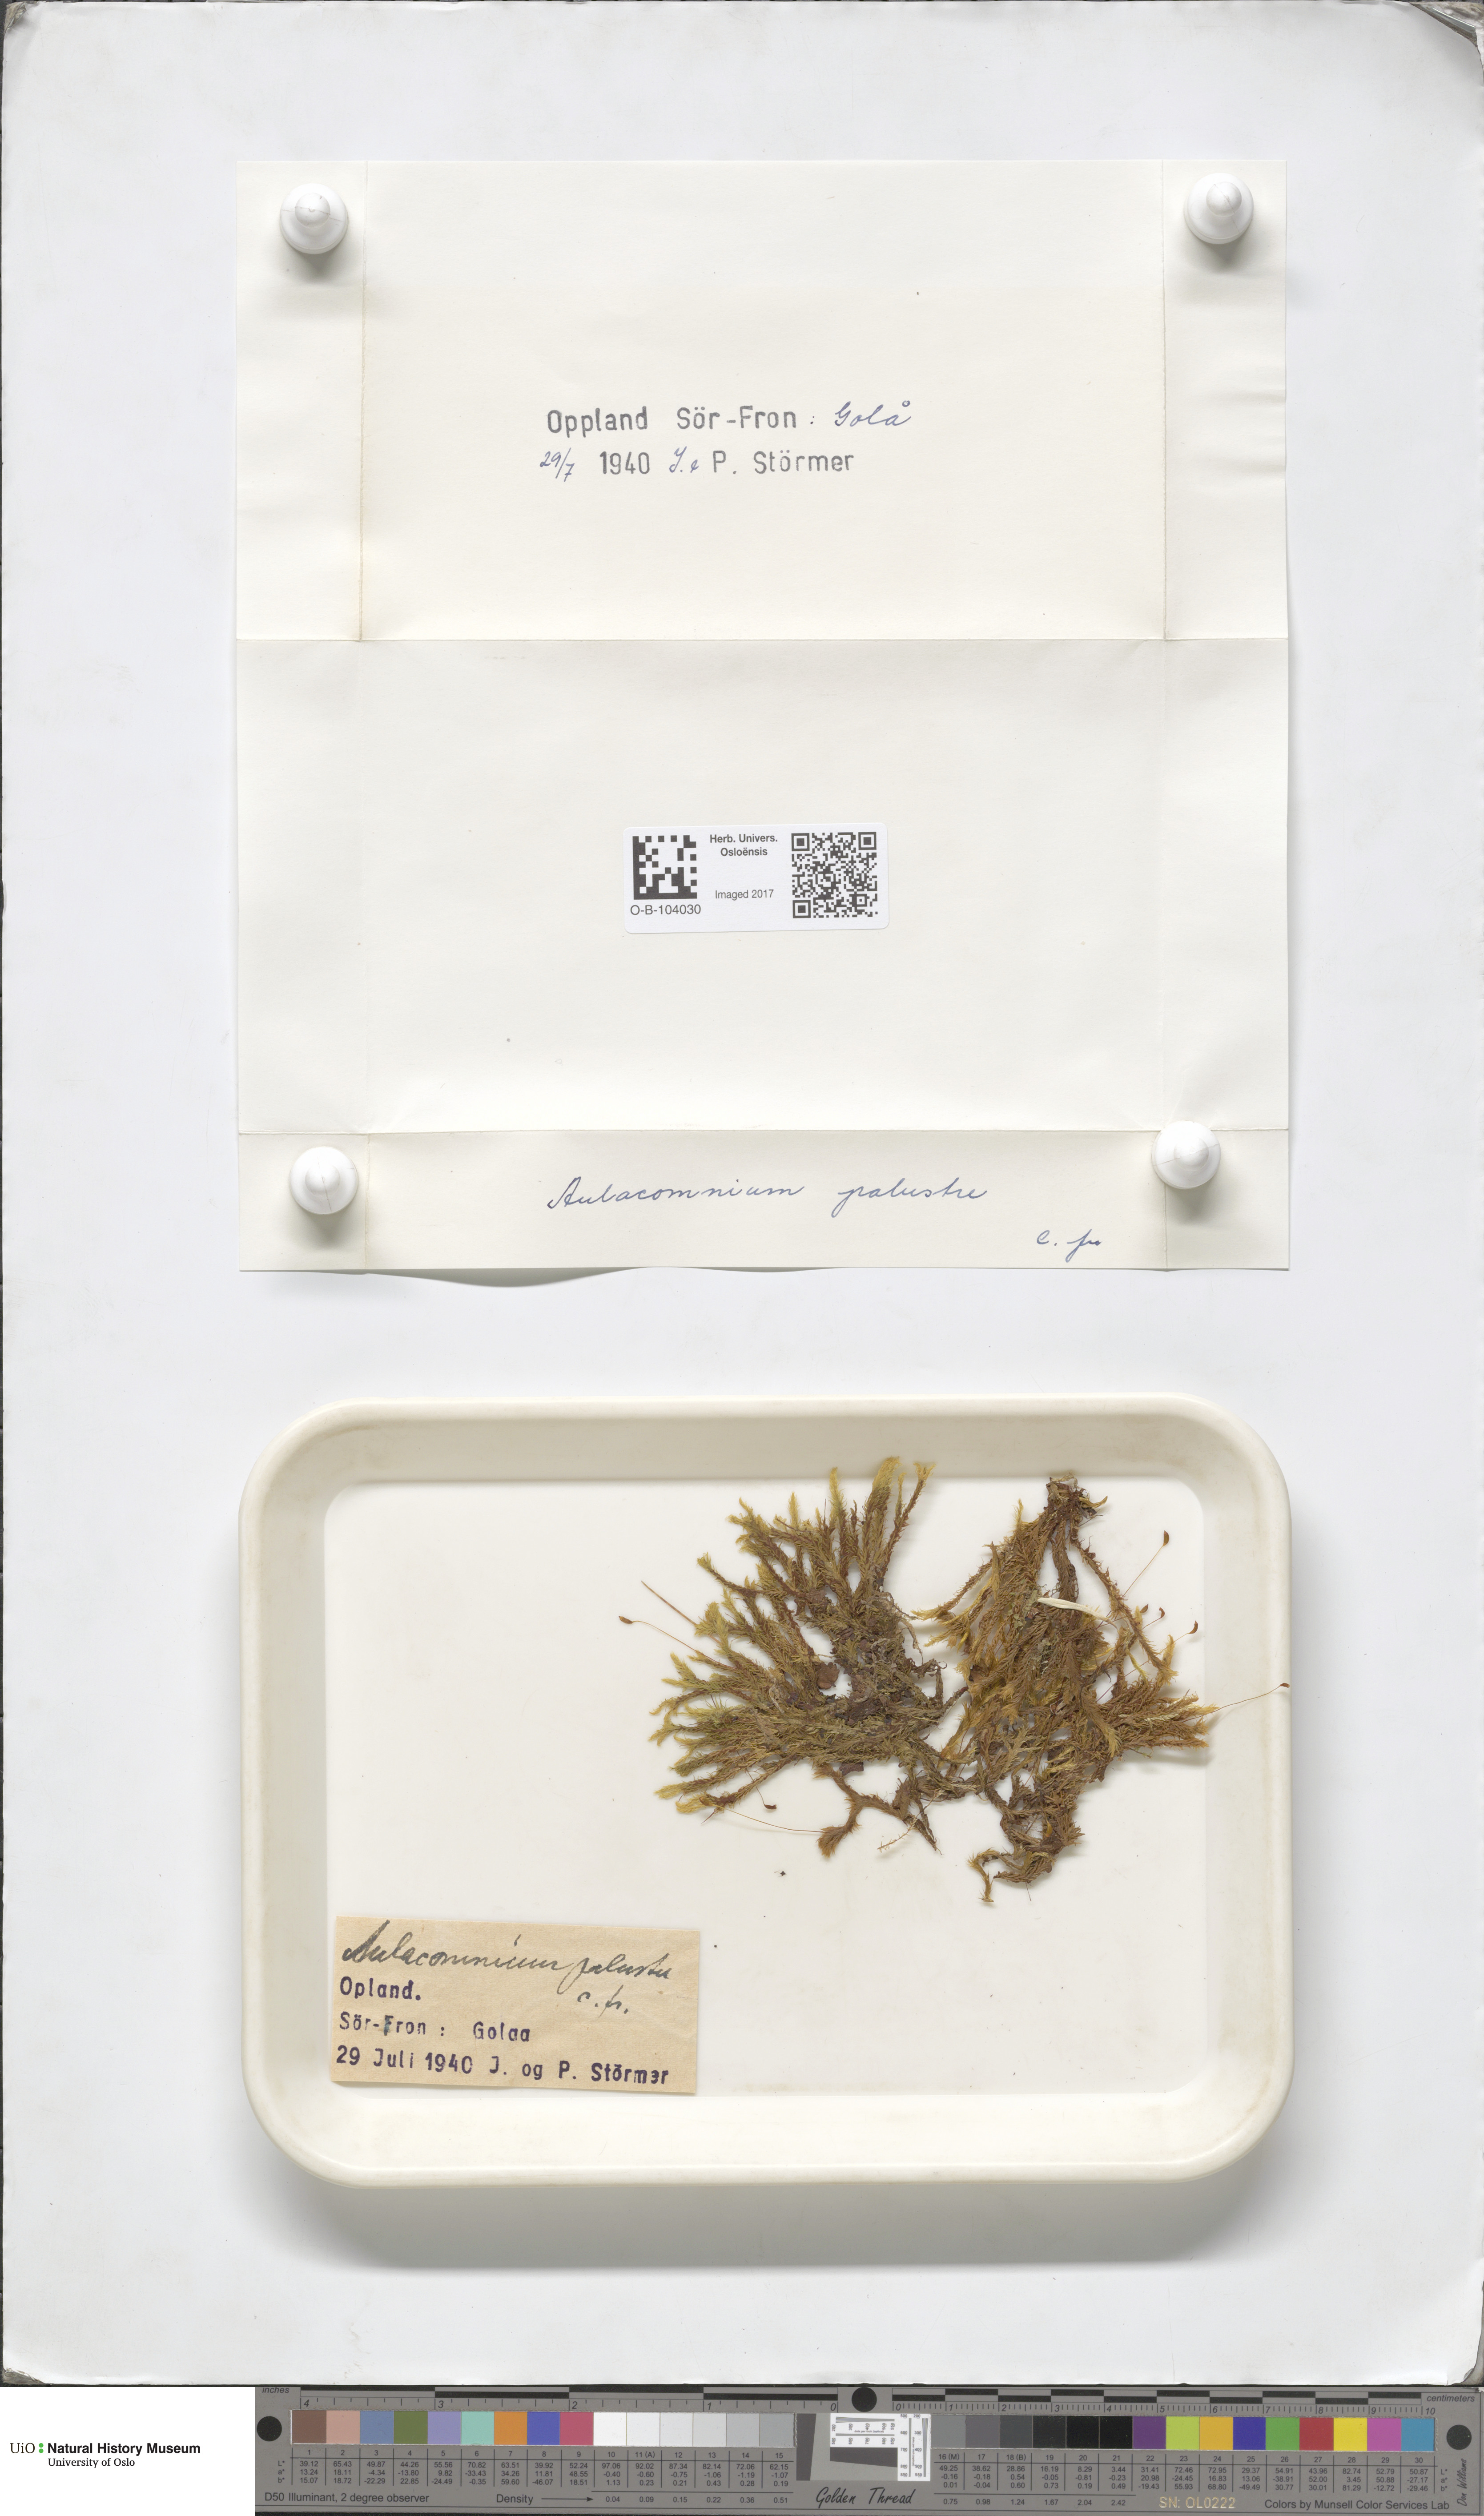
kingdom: Plantae
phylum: Bryophyta
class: Bryopsida
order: Aulacomniales
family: Aulacomniaceae
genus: Aulacomnium
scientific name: Aulacomnium palustre
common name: Bog groove-moss
